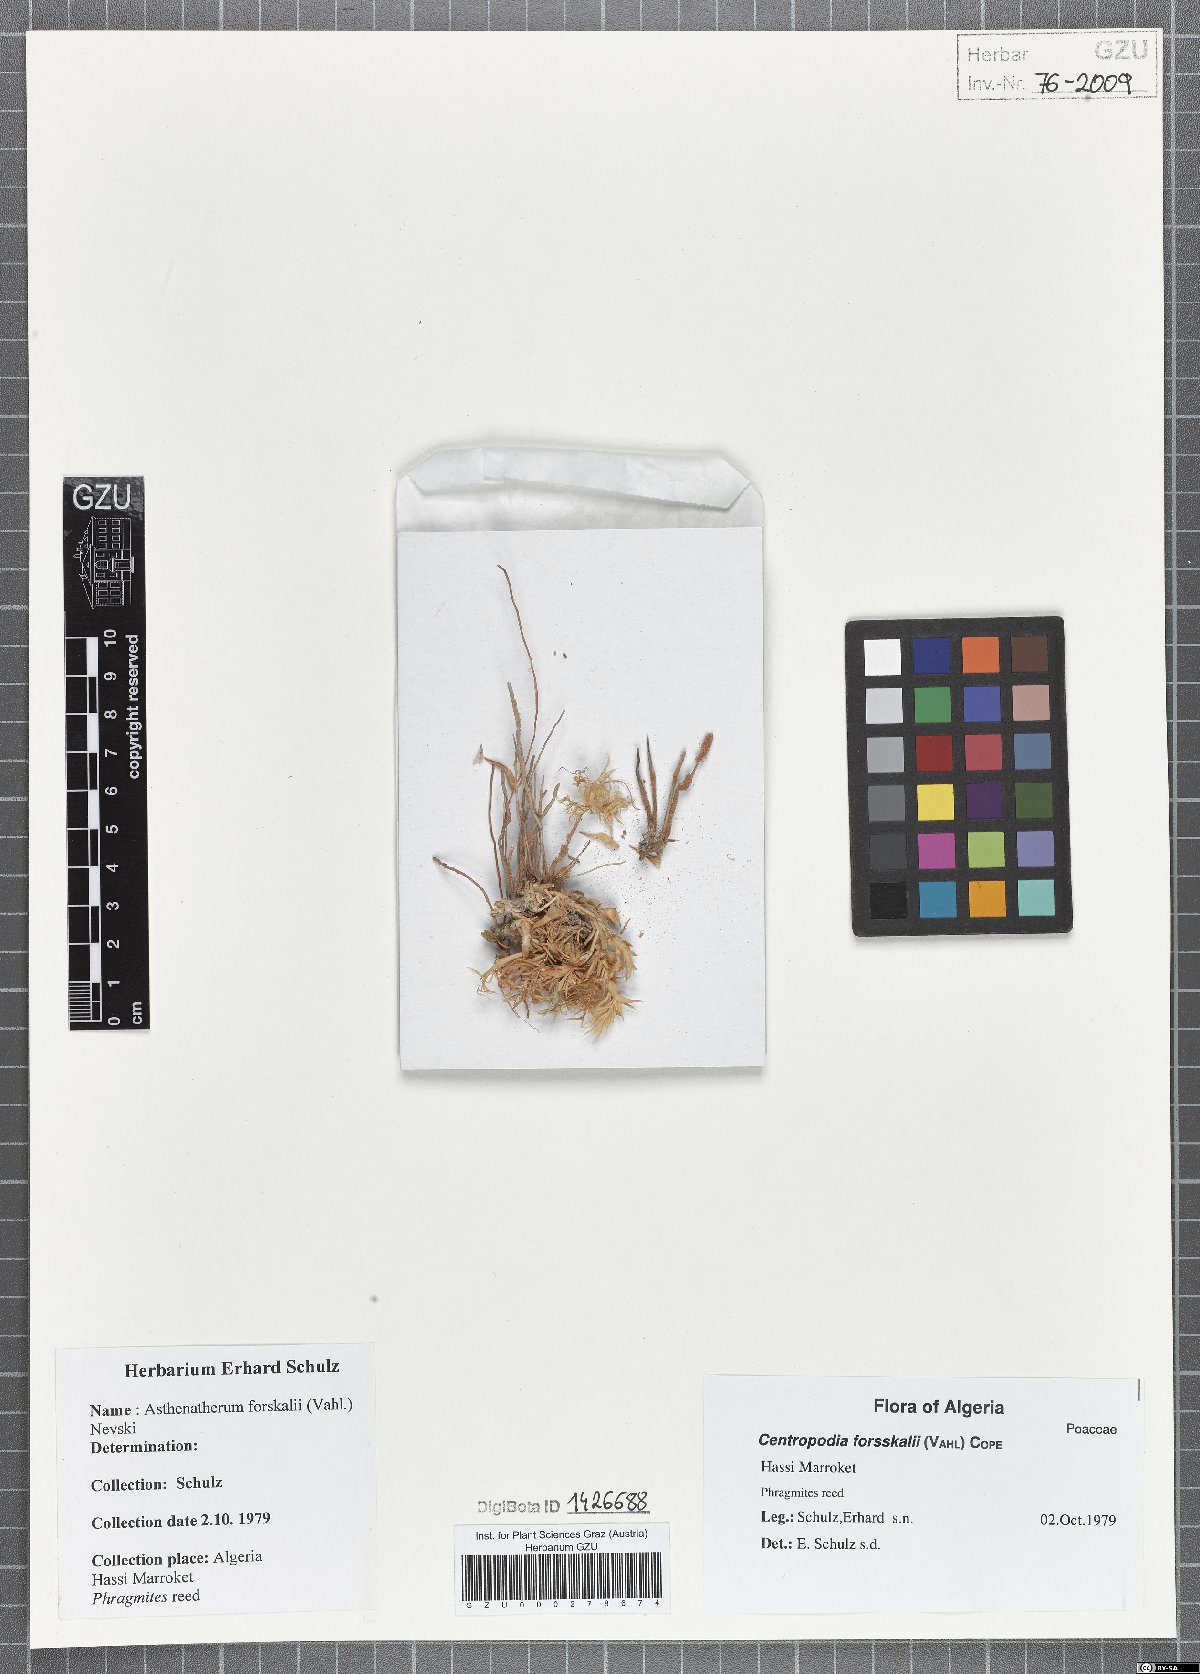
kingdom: Plantae
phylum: Tracheophyta
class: Liliopsida
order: Poales
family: Poaceae
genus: Centropodia
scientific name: Centropodia forsskalii
